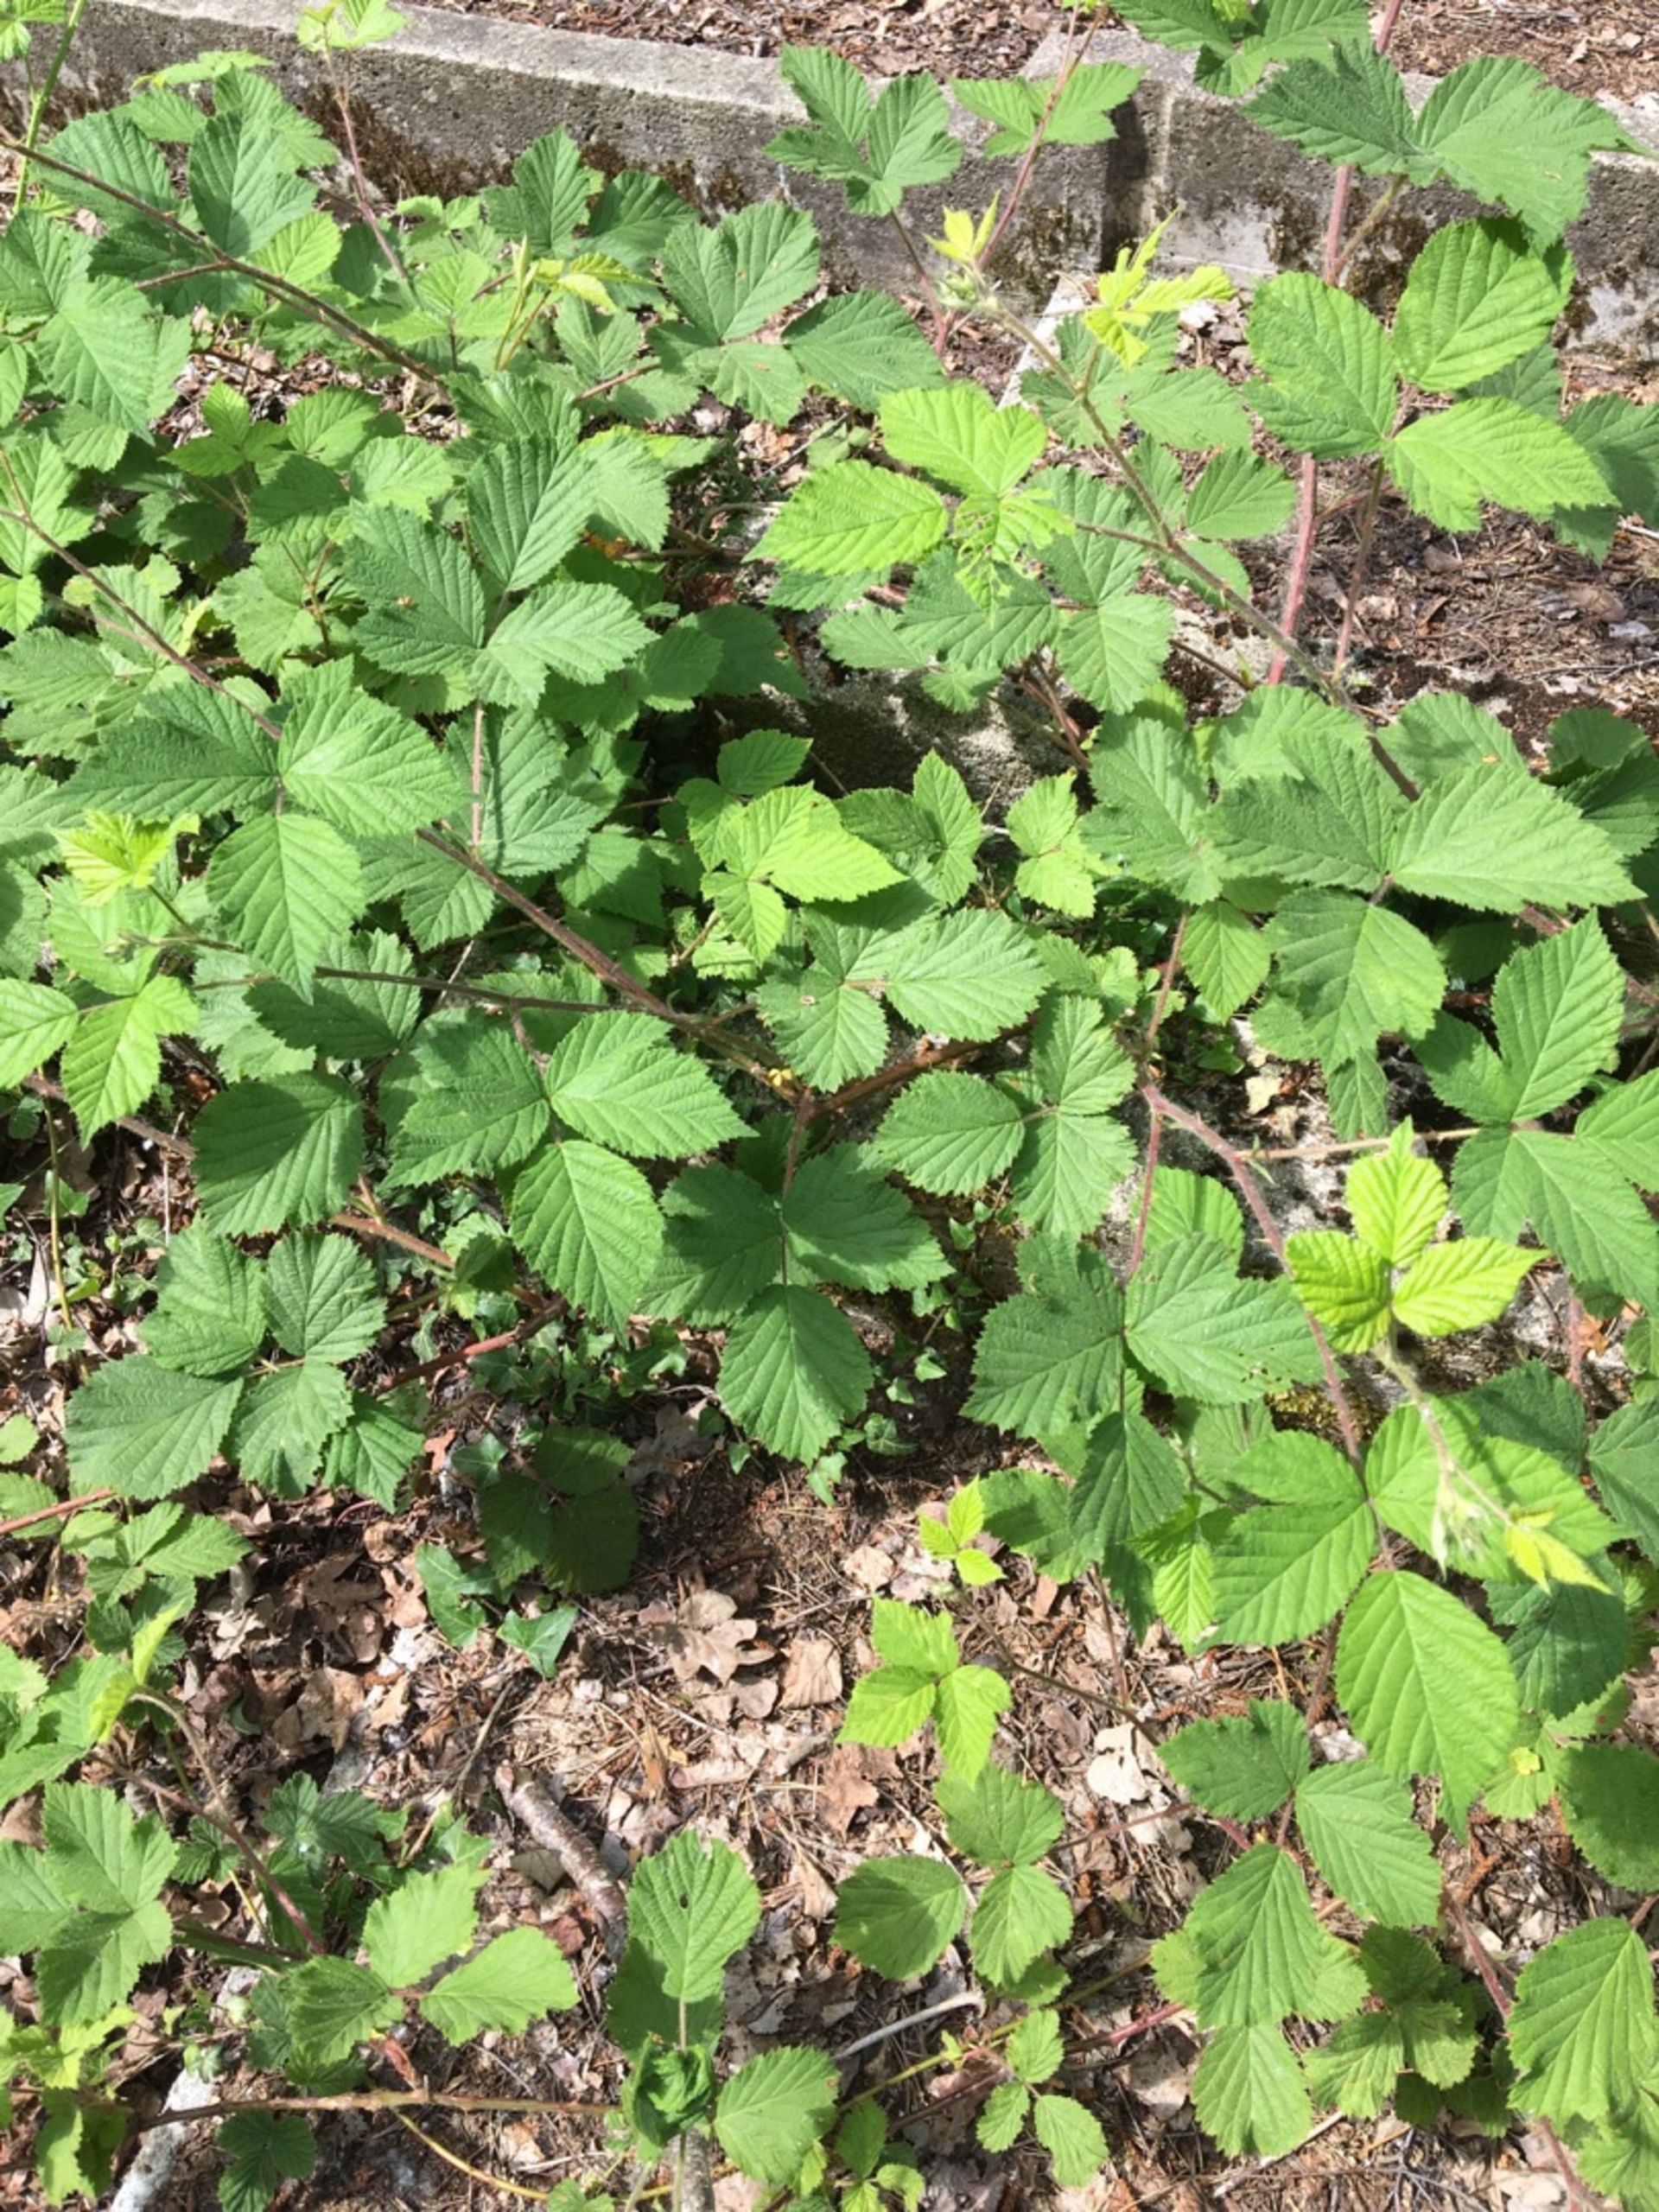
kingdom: Plantae
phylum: Tracheophyta
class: Magnoliopsida
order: Rosales
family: Rosaceae
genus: Rubus
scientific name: Rubus dasyphyllus
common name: Tykbladet brombær
